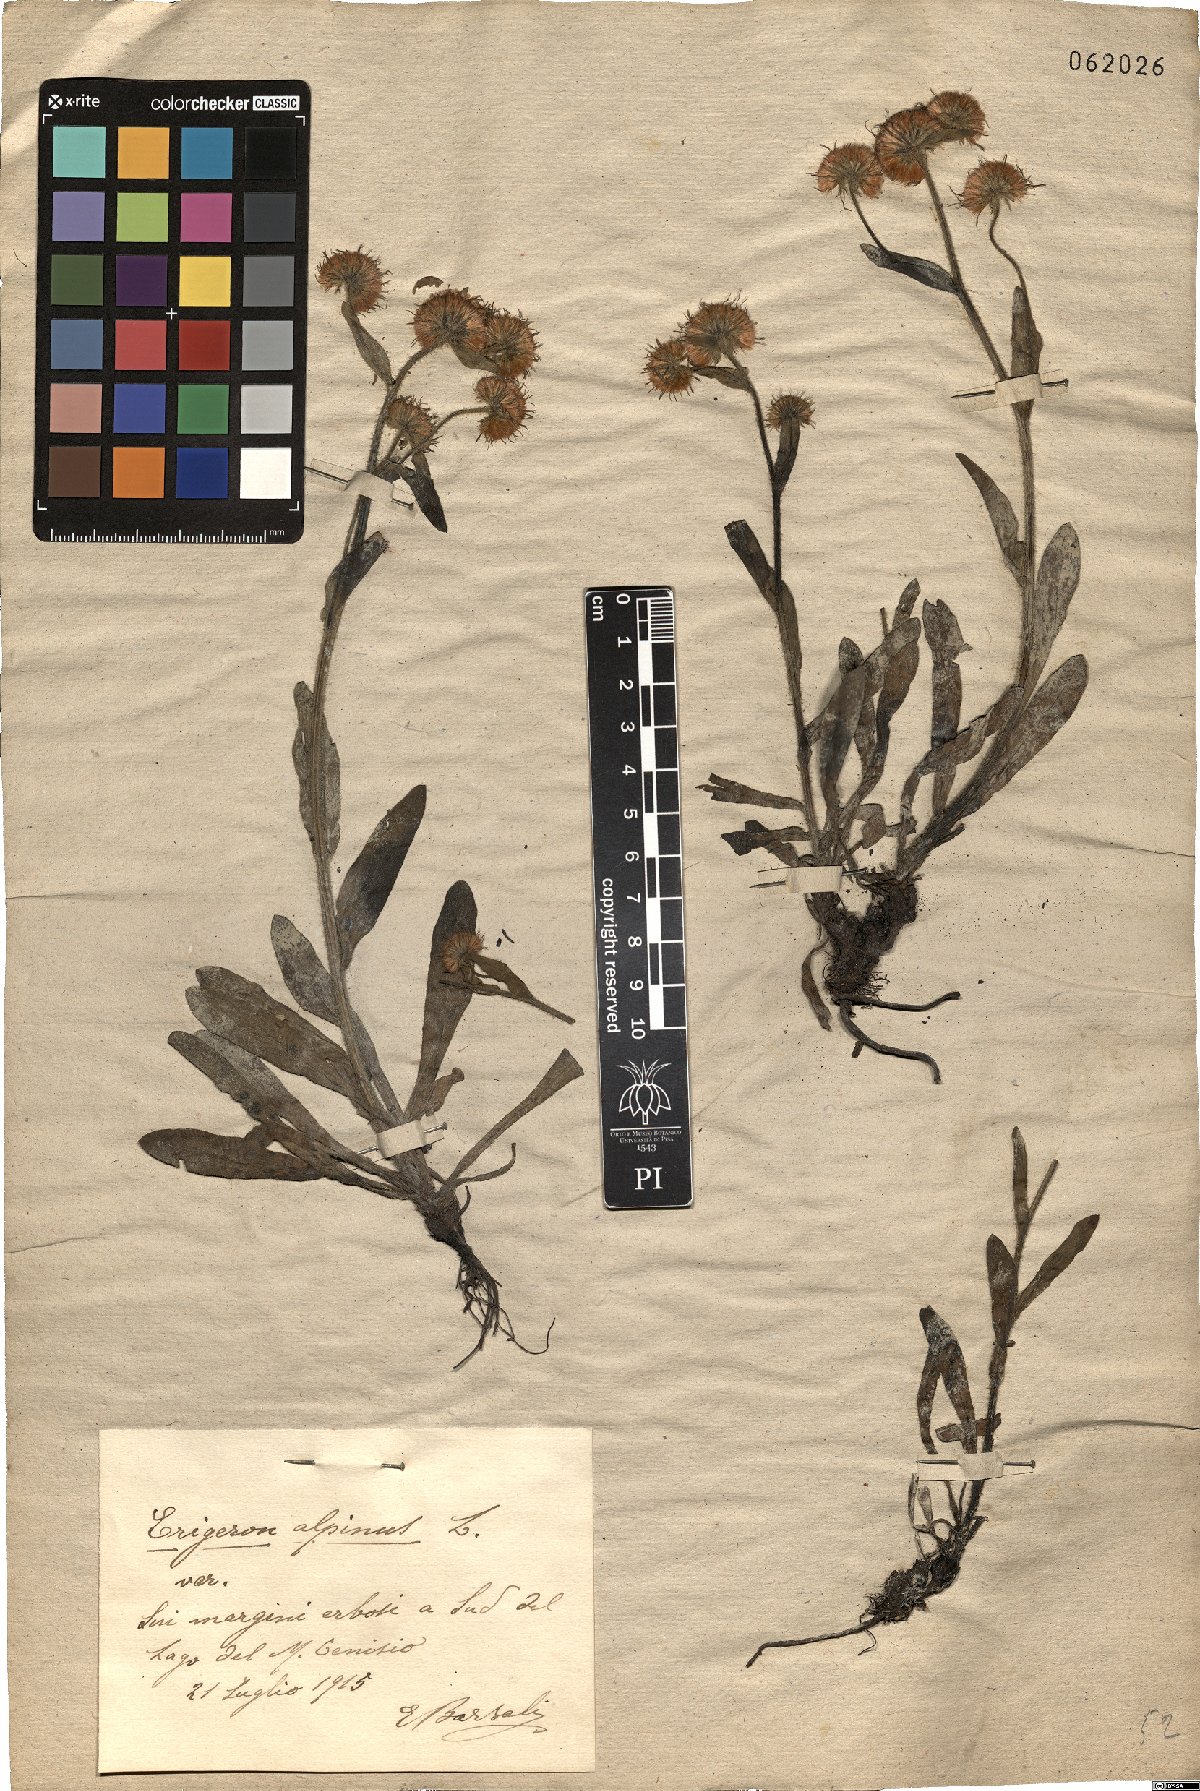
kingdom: Plantae
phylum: Tracheophyta
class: Magnoliopsida
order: Asterales
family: Asteraceae
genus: Erigeron
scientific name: Erigeron alpinus
